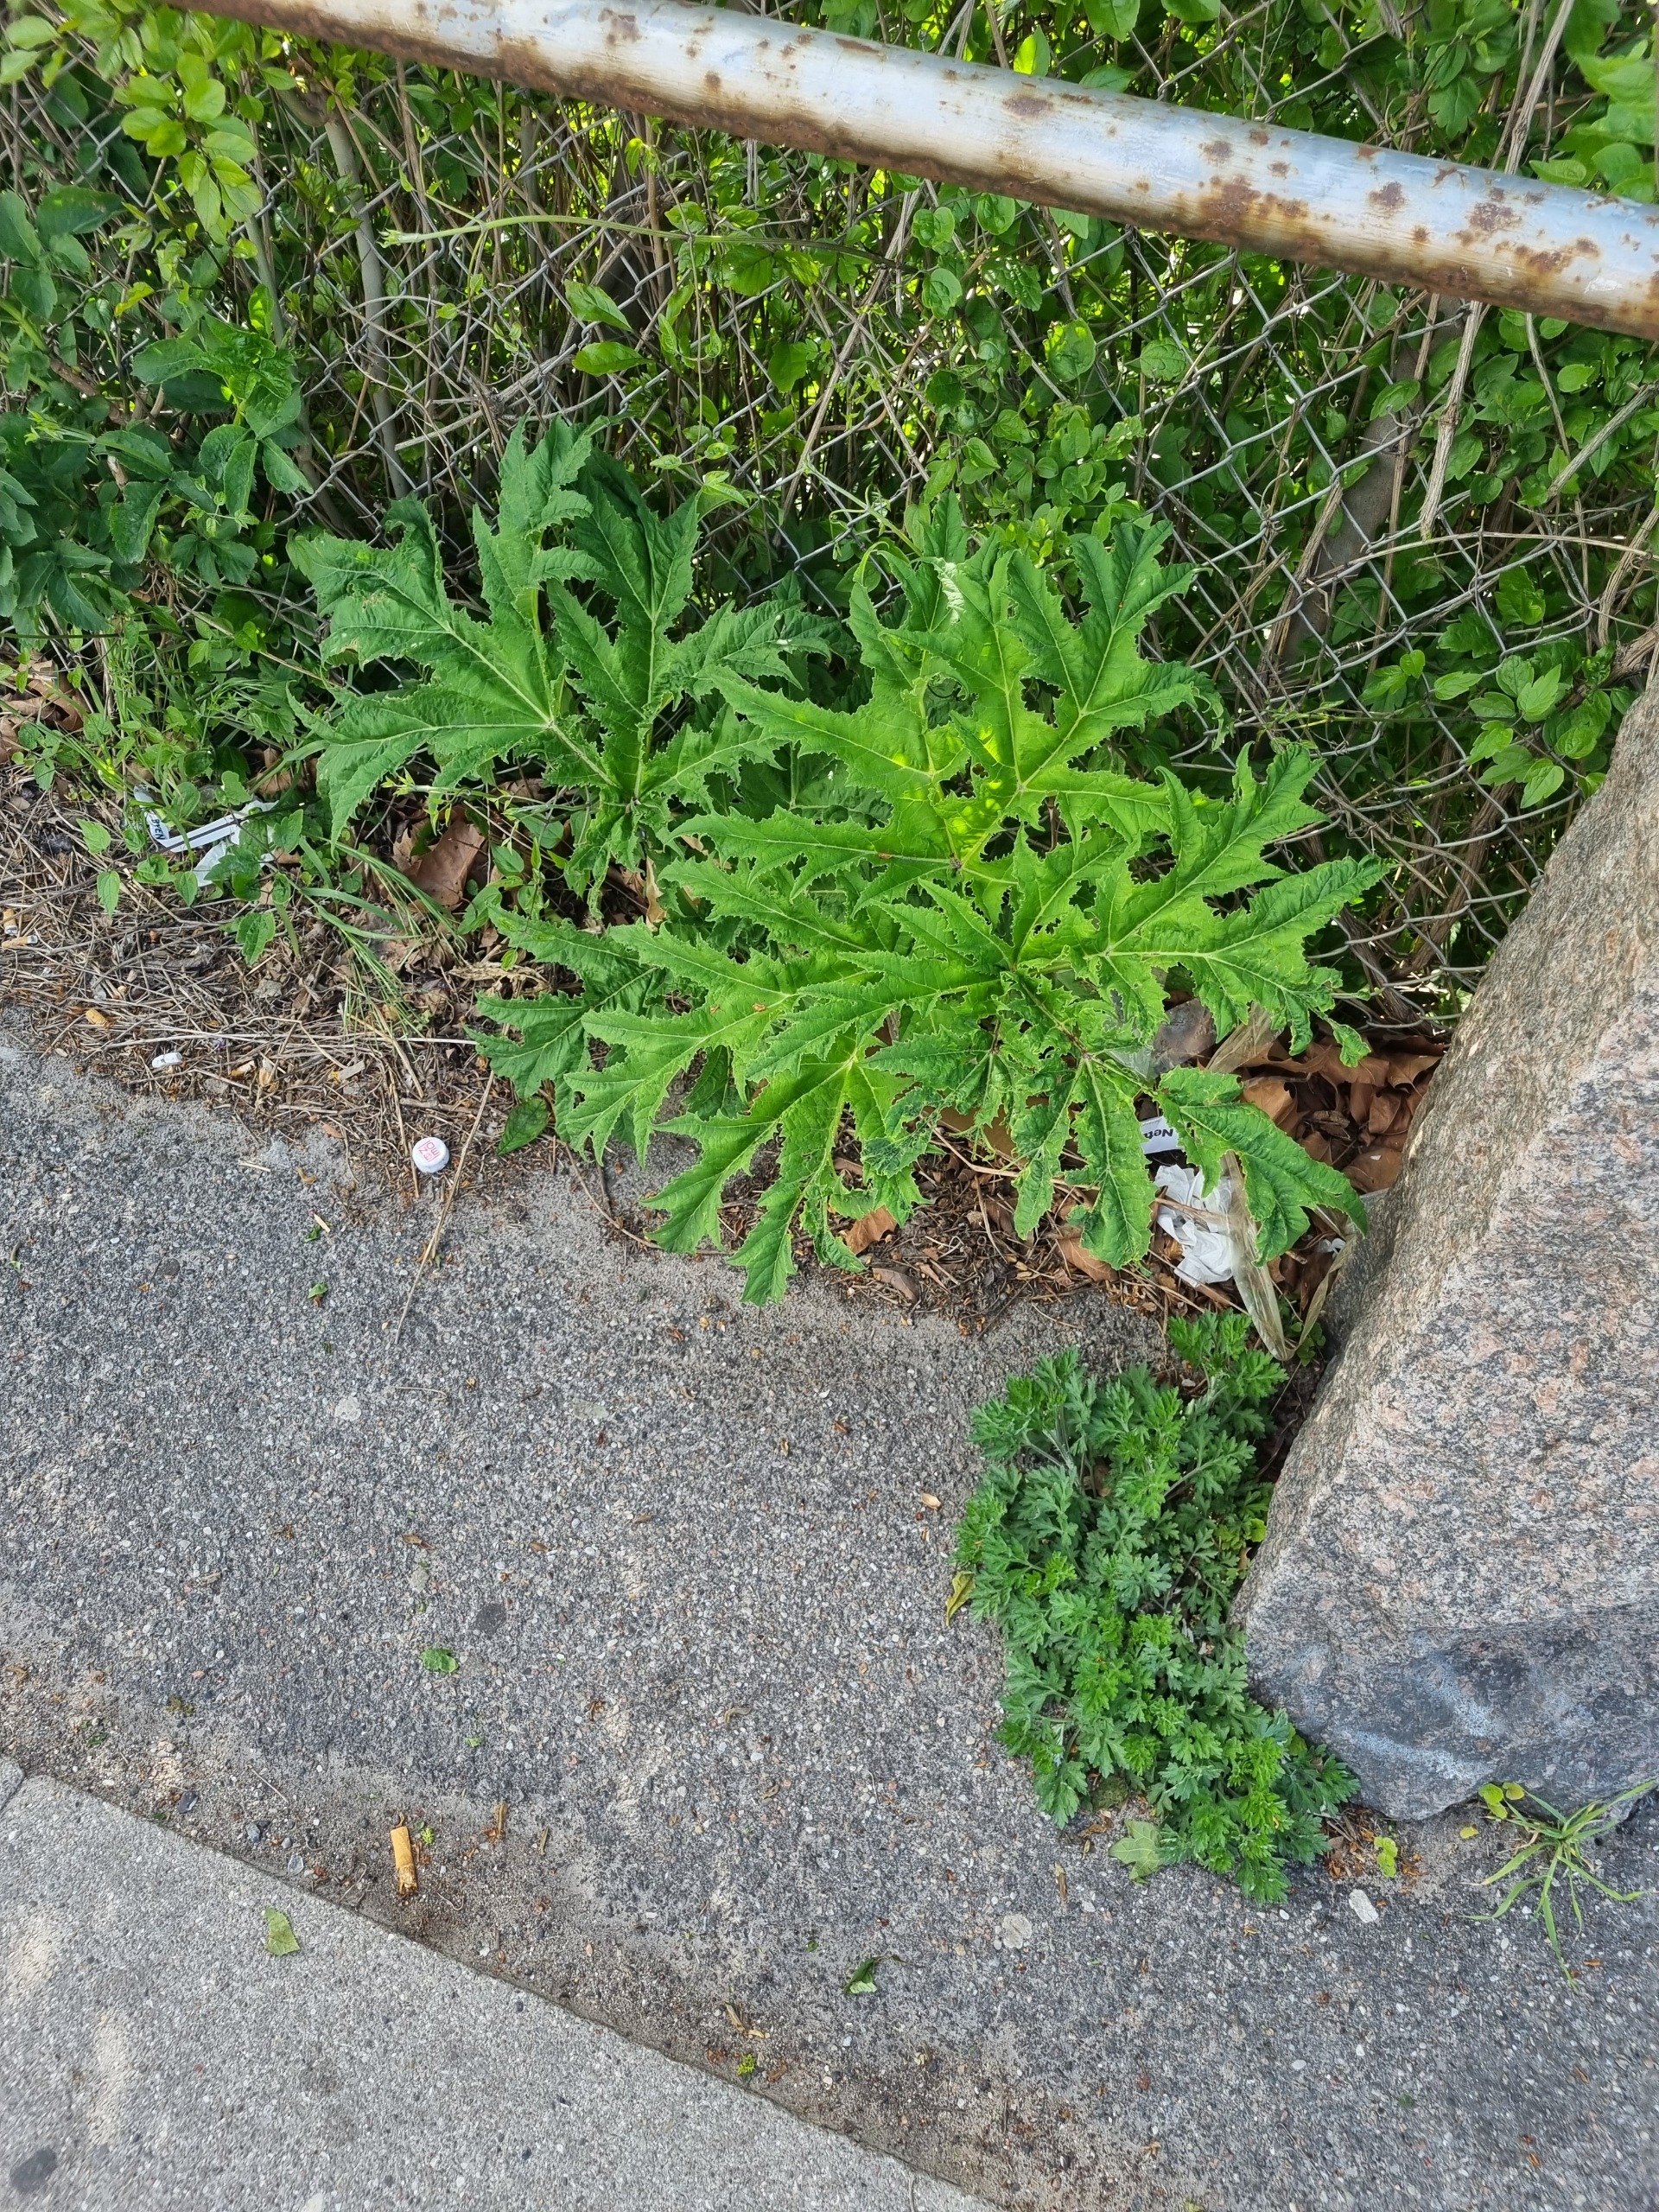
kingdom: Plantae
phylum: Tracheophyta
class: Magnoliopsida
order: Apiales
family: Apiaceae
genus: Heracleum
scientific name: Heracleum mantegazzianum
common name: Kæmpe-bjørneklo
